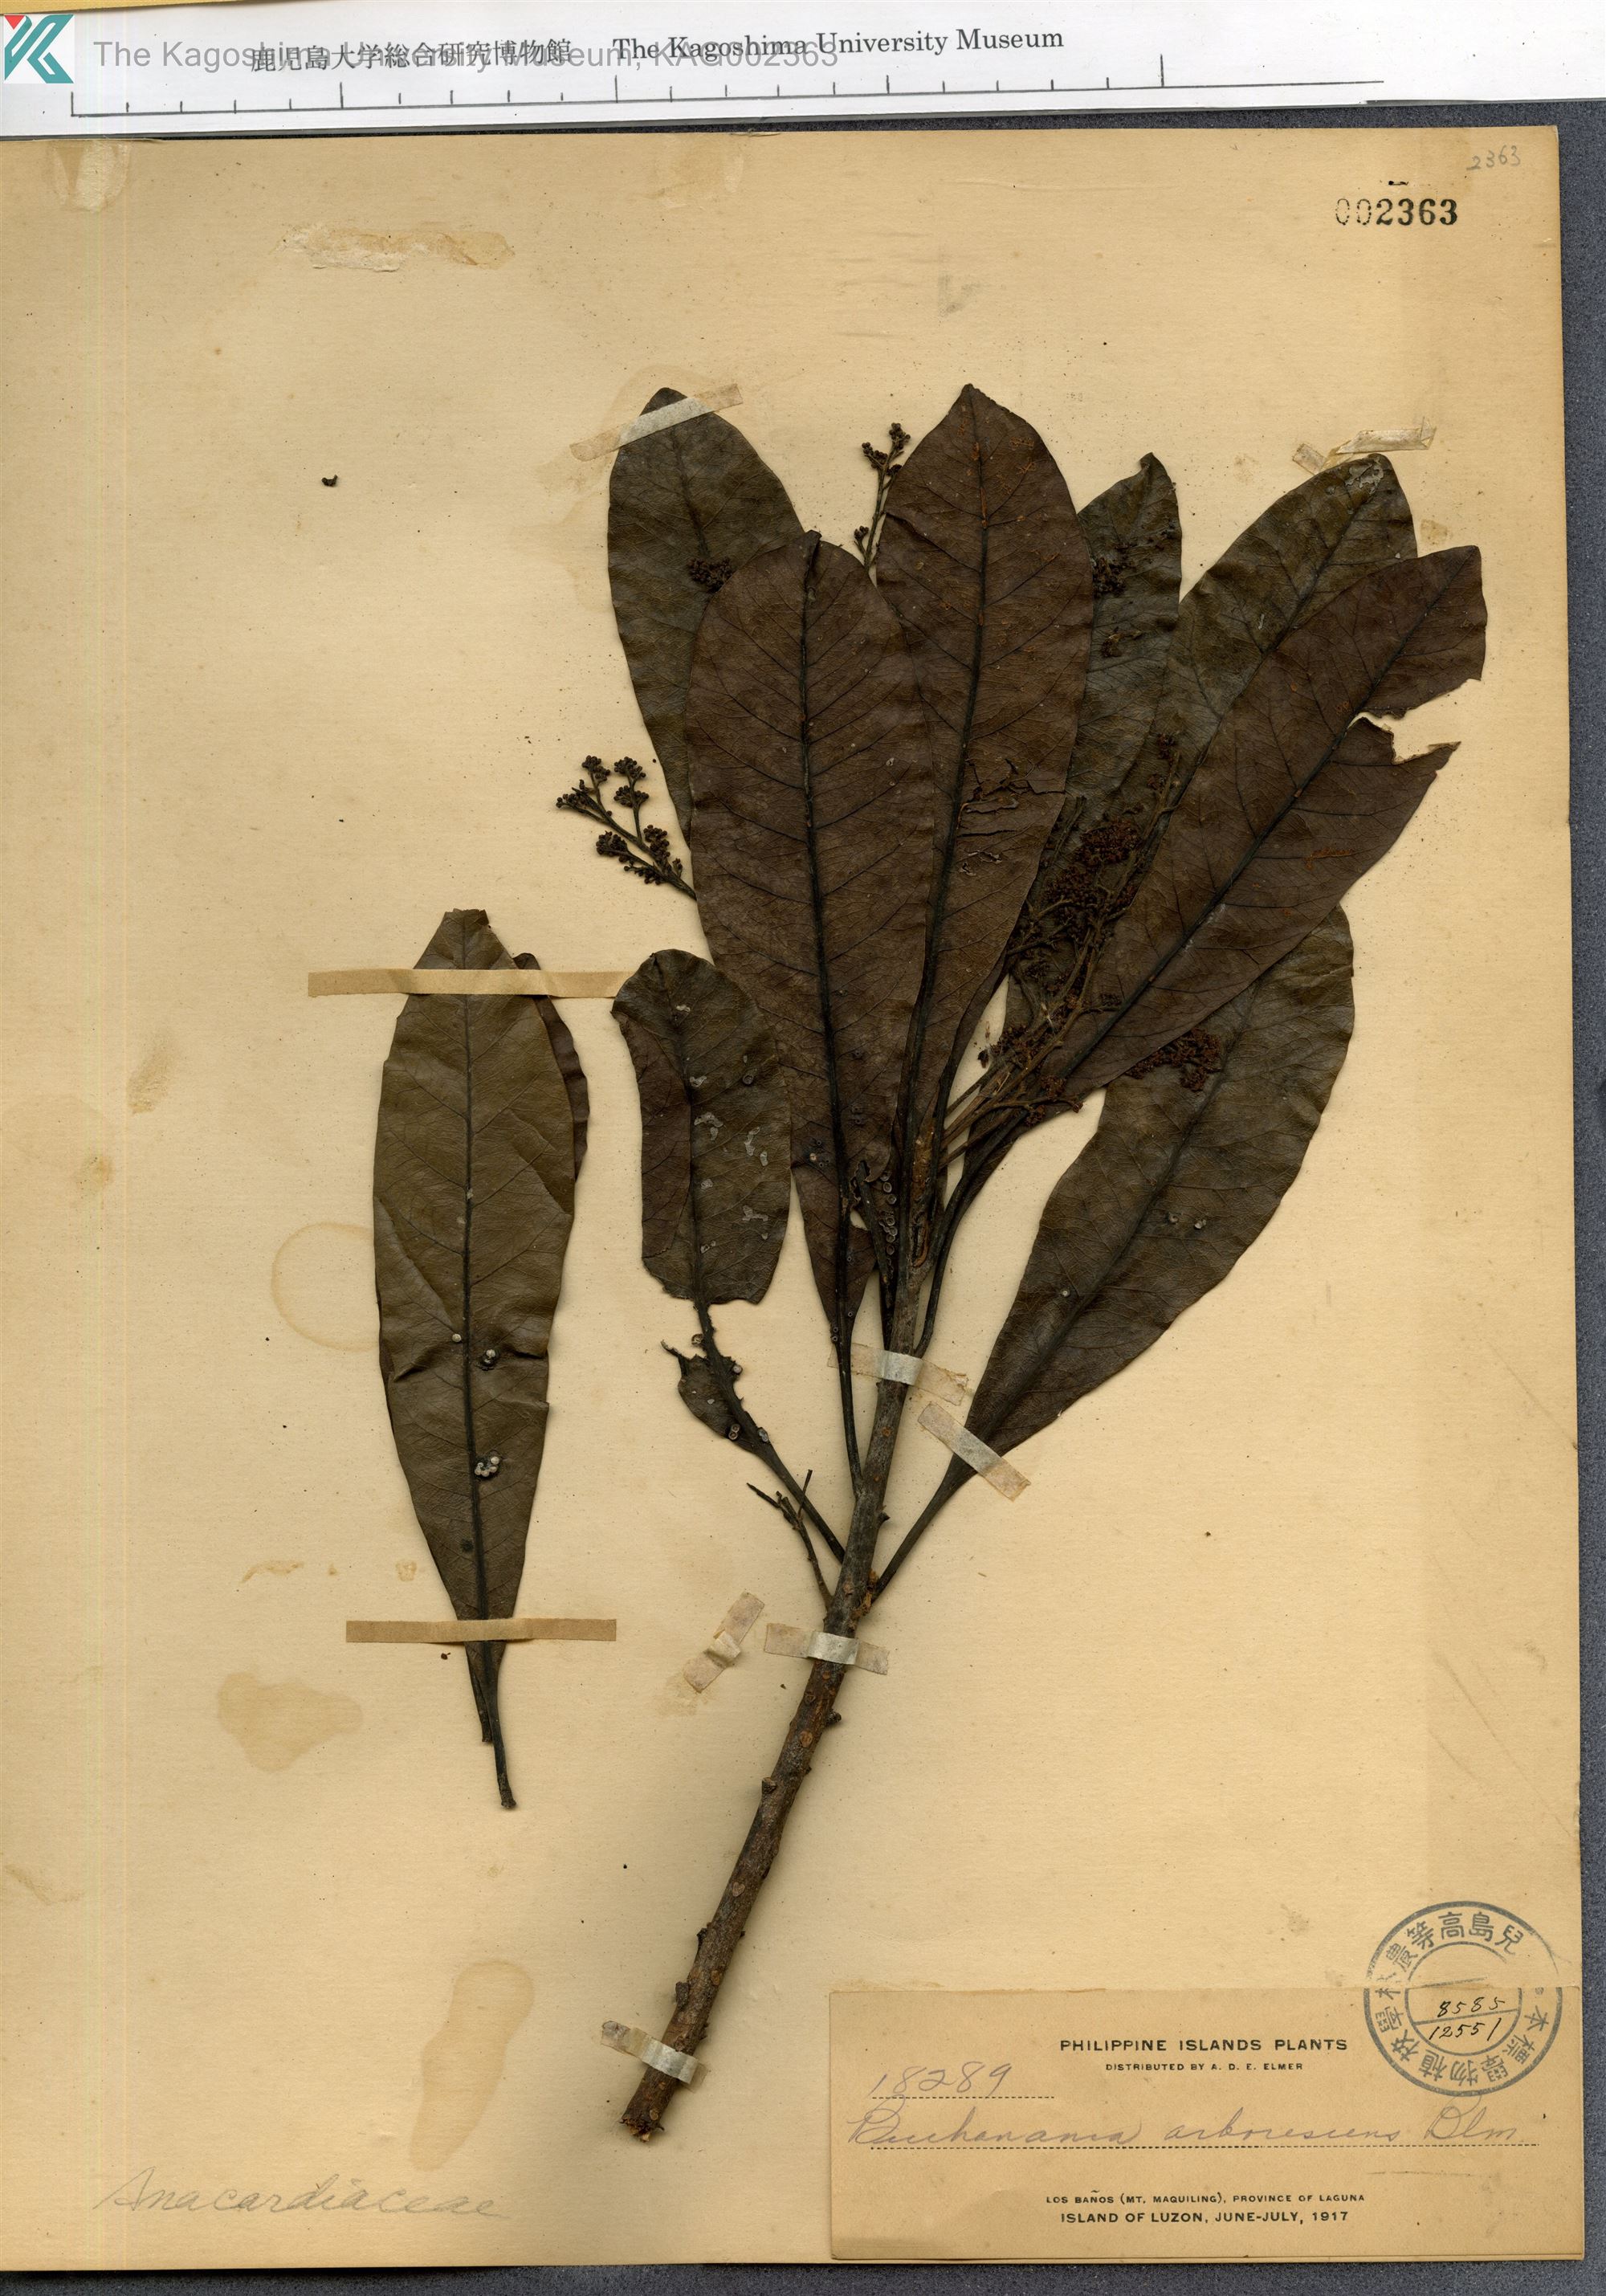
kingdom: Plantae
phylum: Tracheophyta
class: Magnoliopsida
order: Sapindales
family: Anacardiaceae
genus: Buchanania
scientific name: Buchanania arborescens
